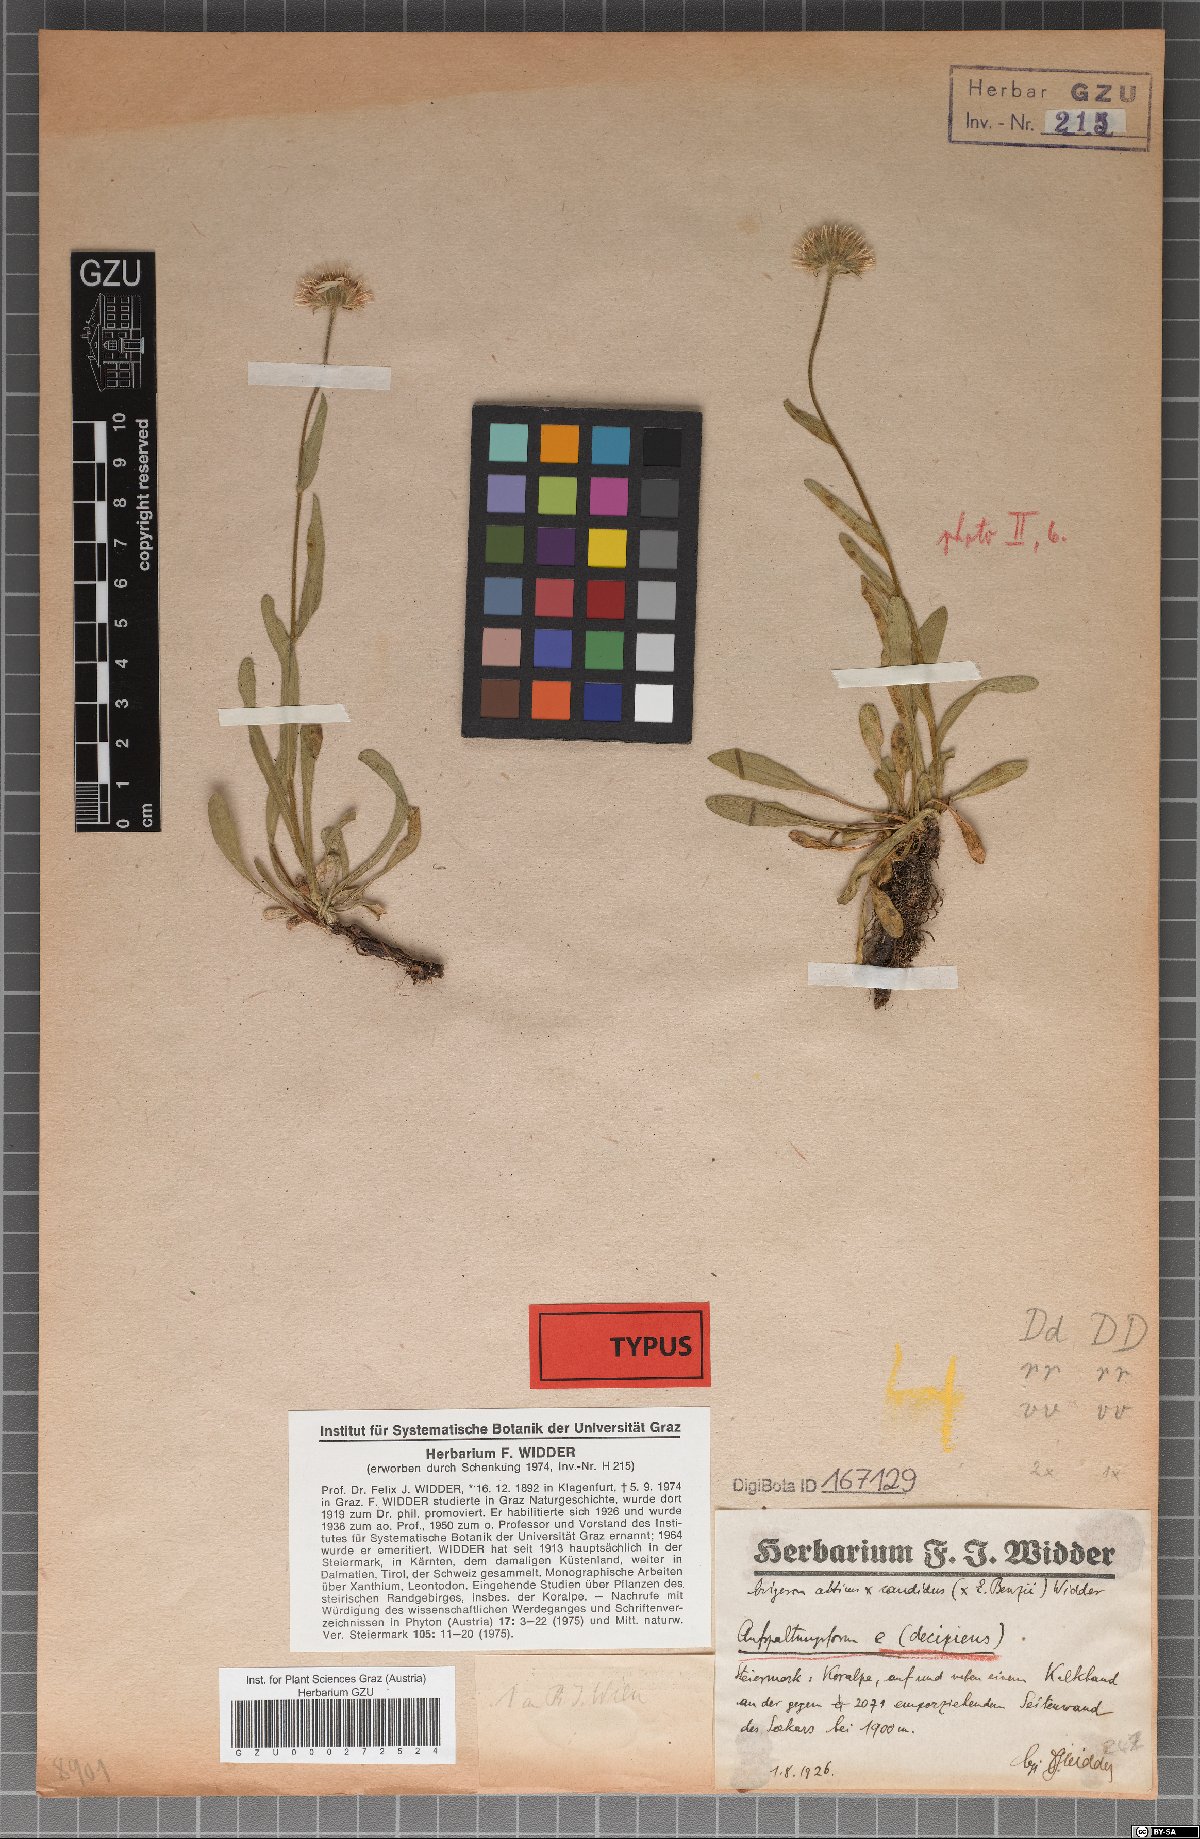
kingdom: Plantae
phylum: Tracheophyta
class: Magnoliopsida
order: Asterales
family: Asteraceae
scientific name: Asteraceae
